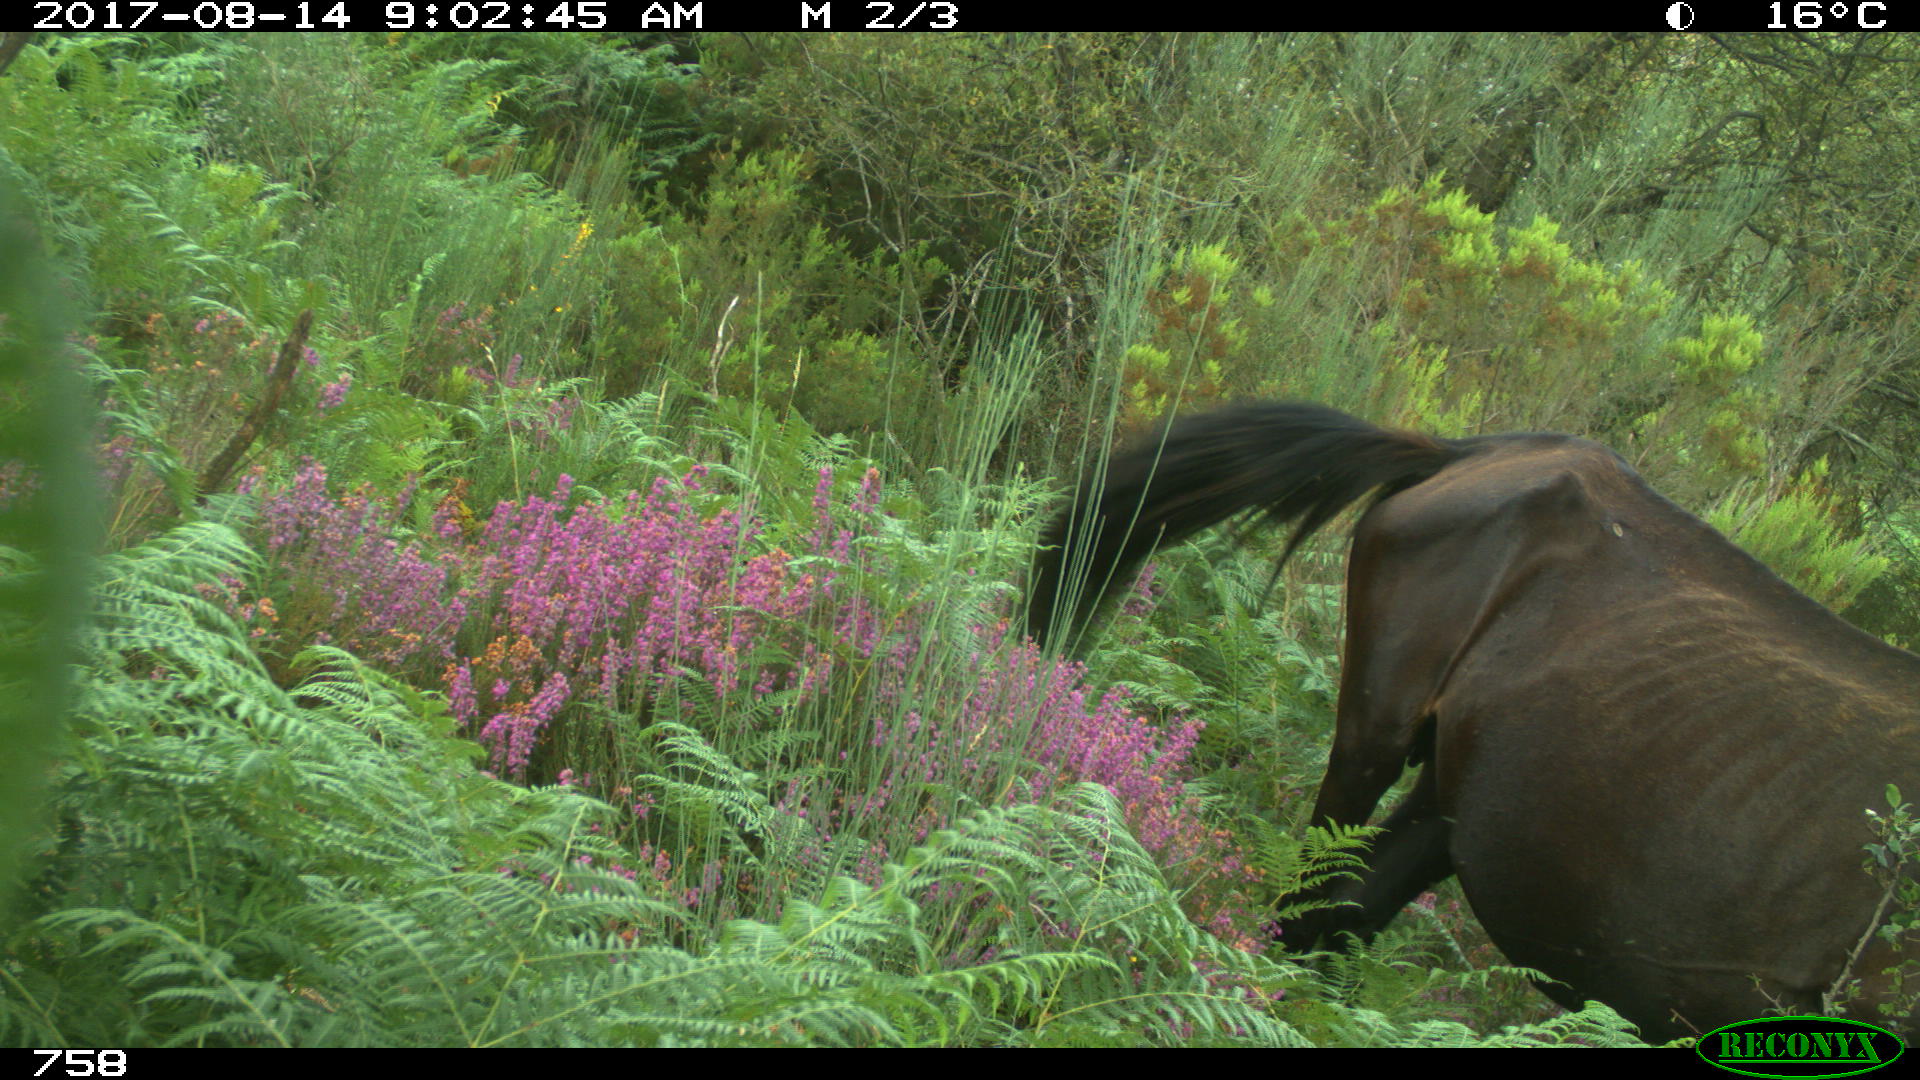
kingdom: Animalia
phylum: Chordata
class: Mammalia
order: Perissodactyla
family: Equidae
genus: Equus
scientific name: Equus caballus
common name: Horse
